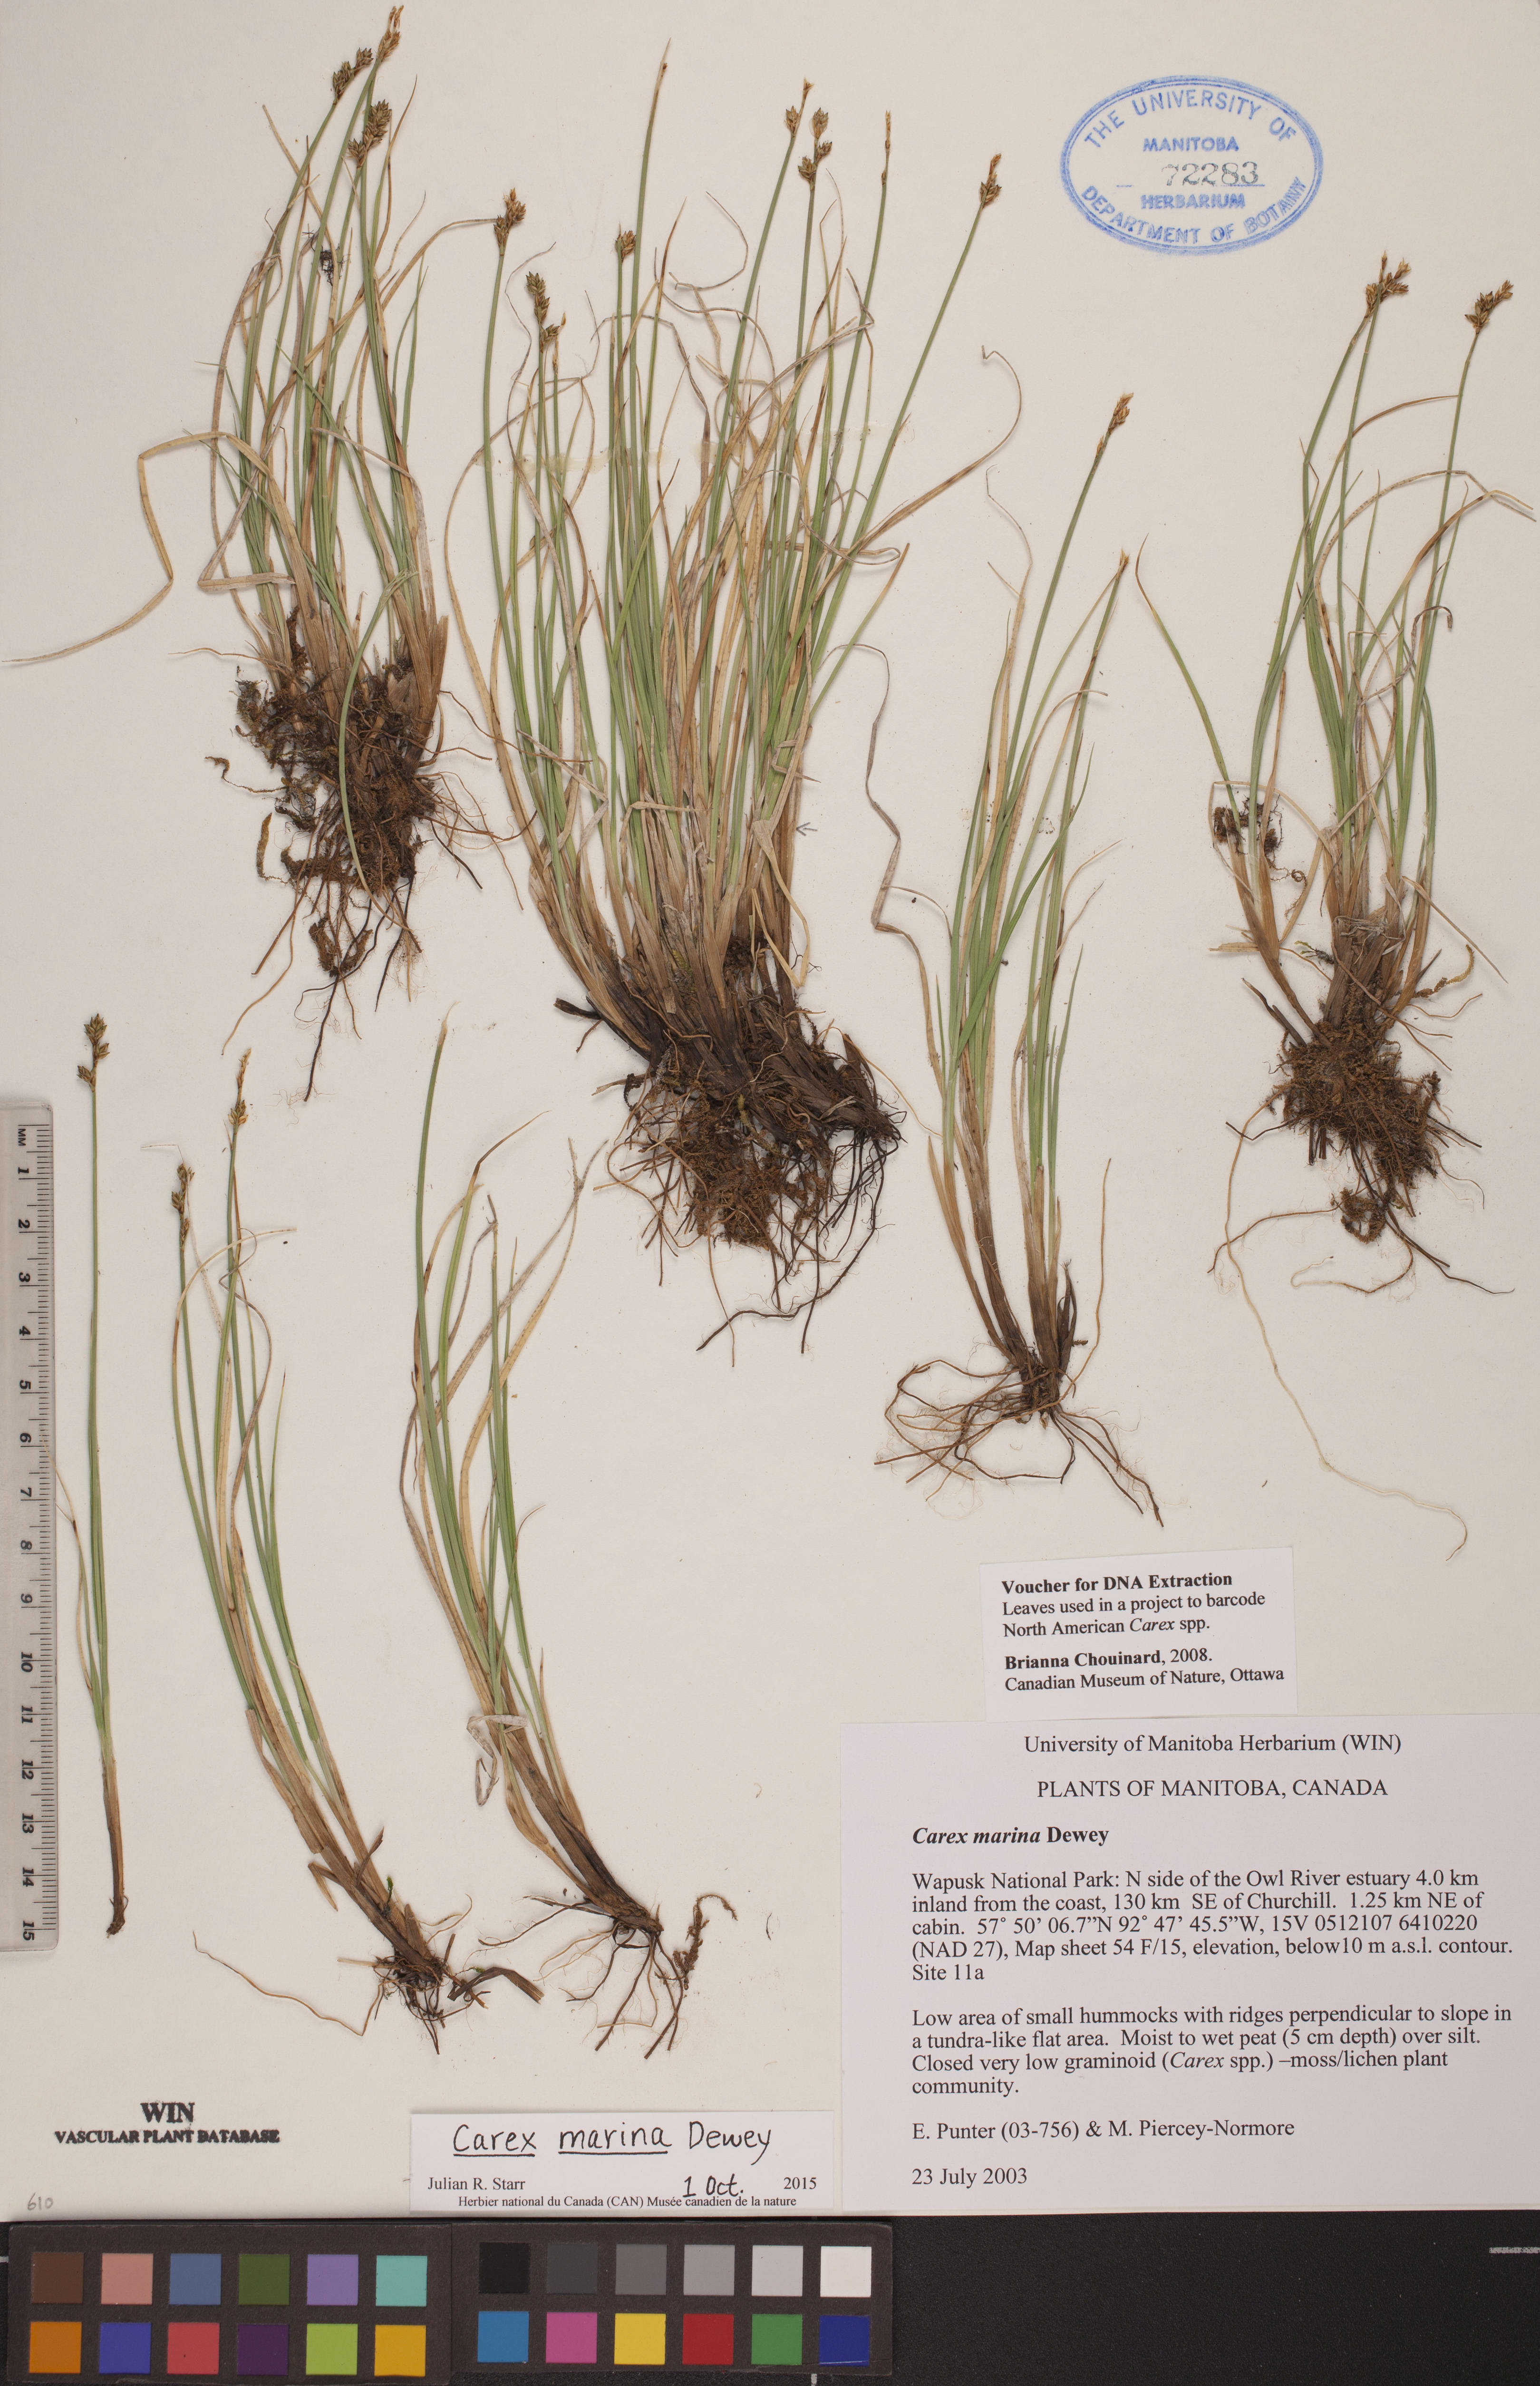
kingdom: Plantae
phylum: Tracheophyta
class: Liliopsida
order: Poales
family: Cyperaceae
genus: Carex
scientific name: Carex marina
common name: Seashore sedge
